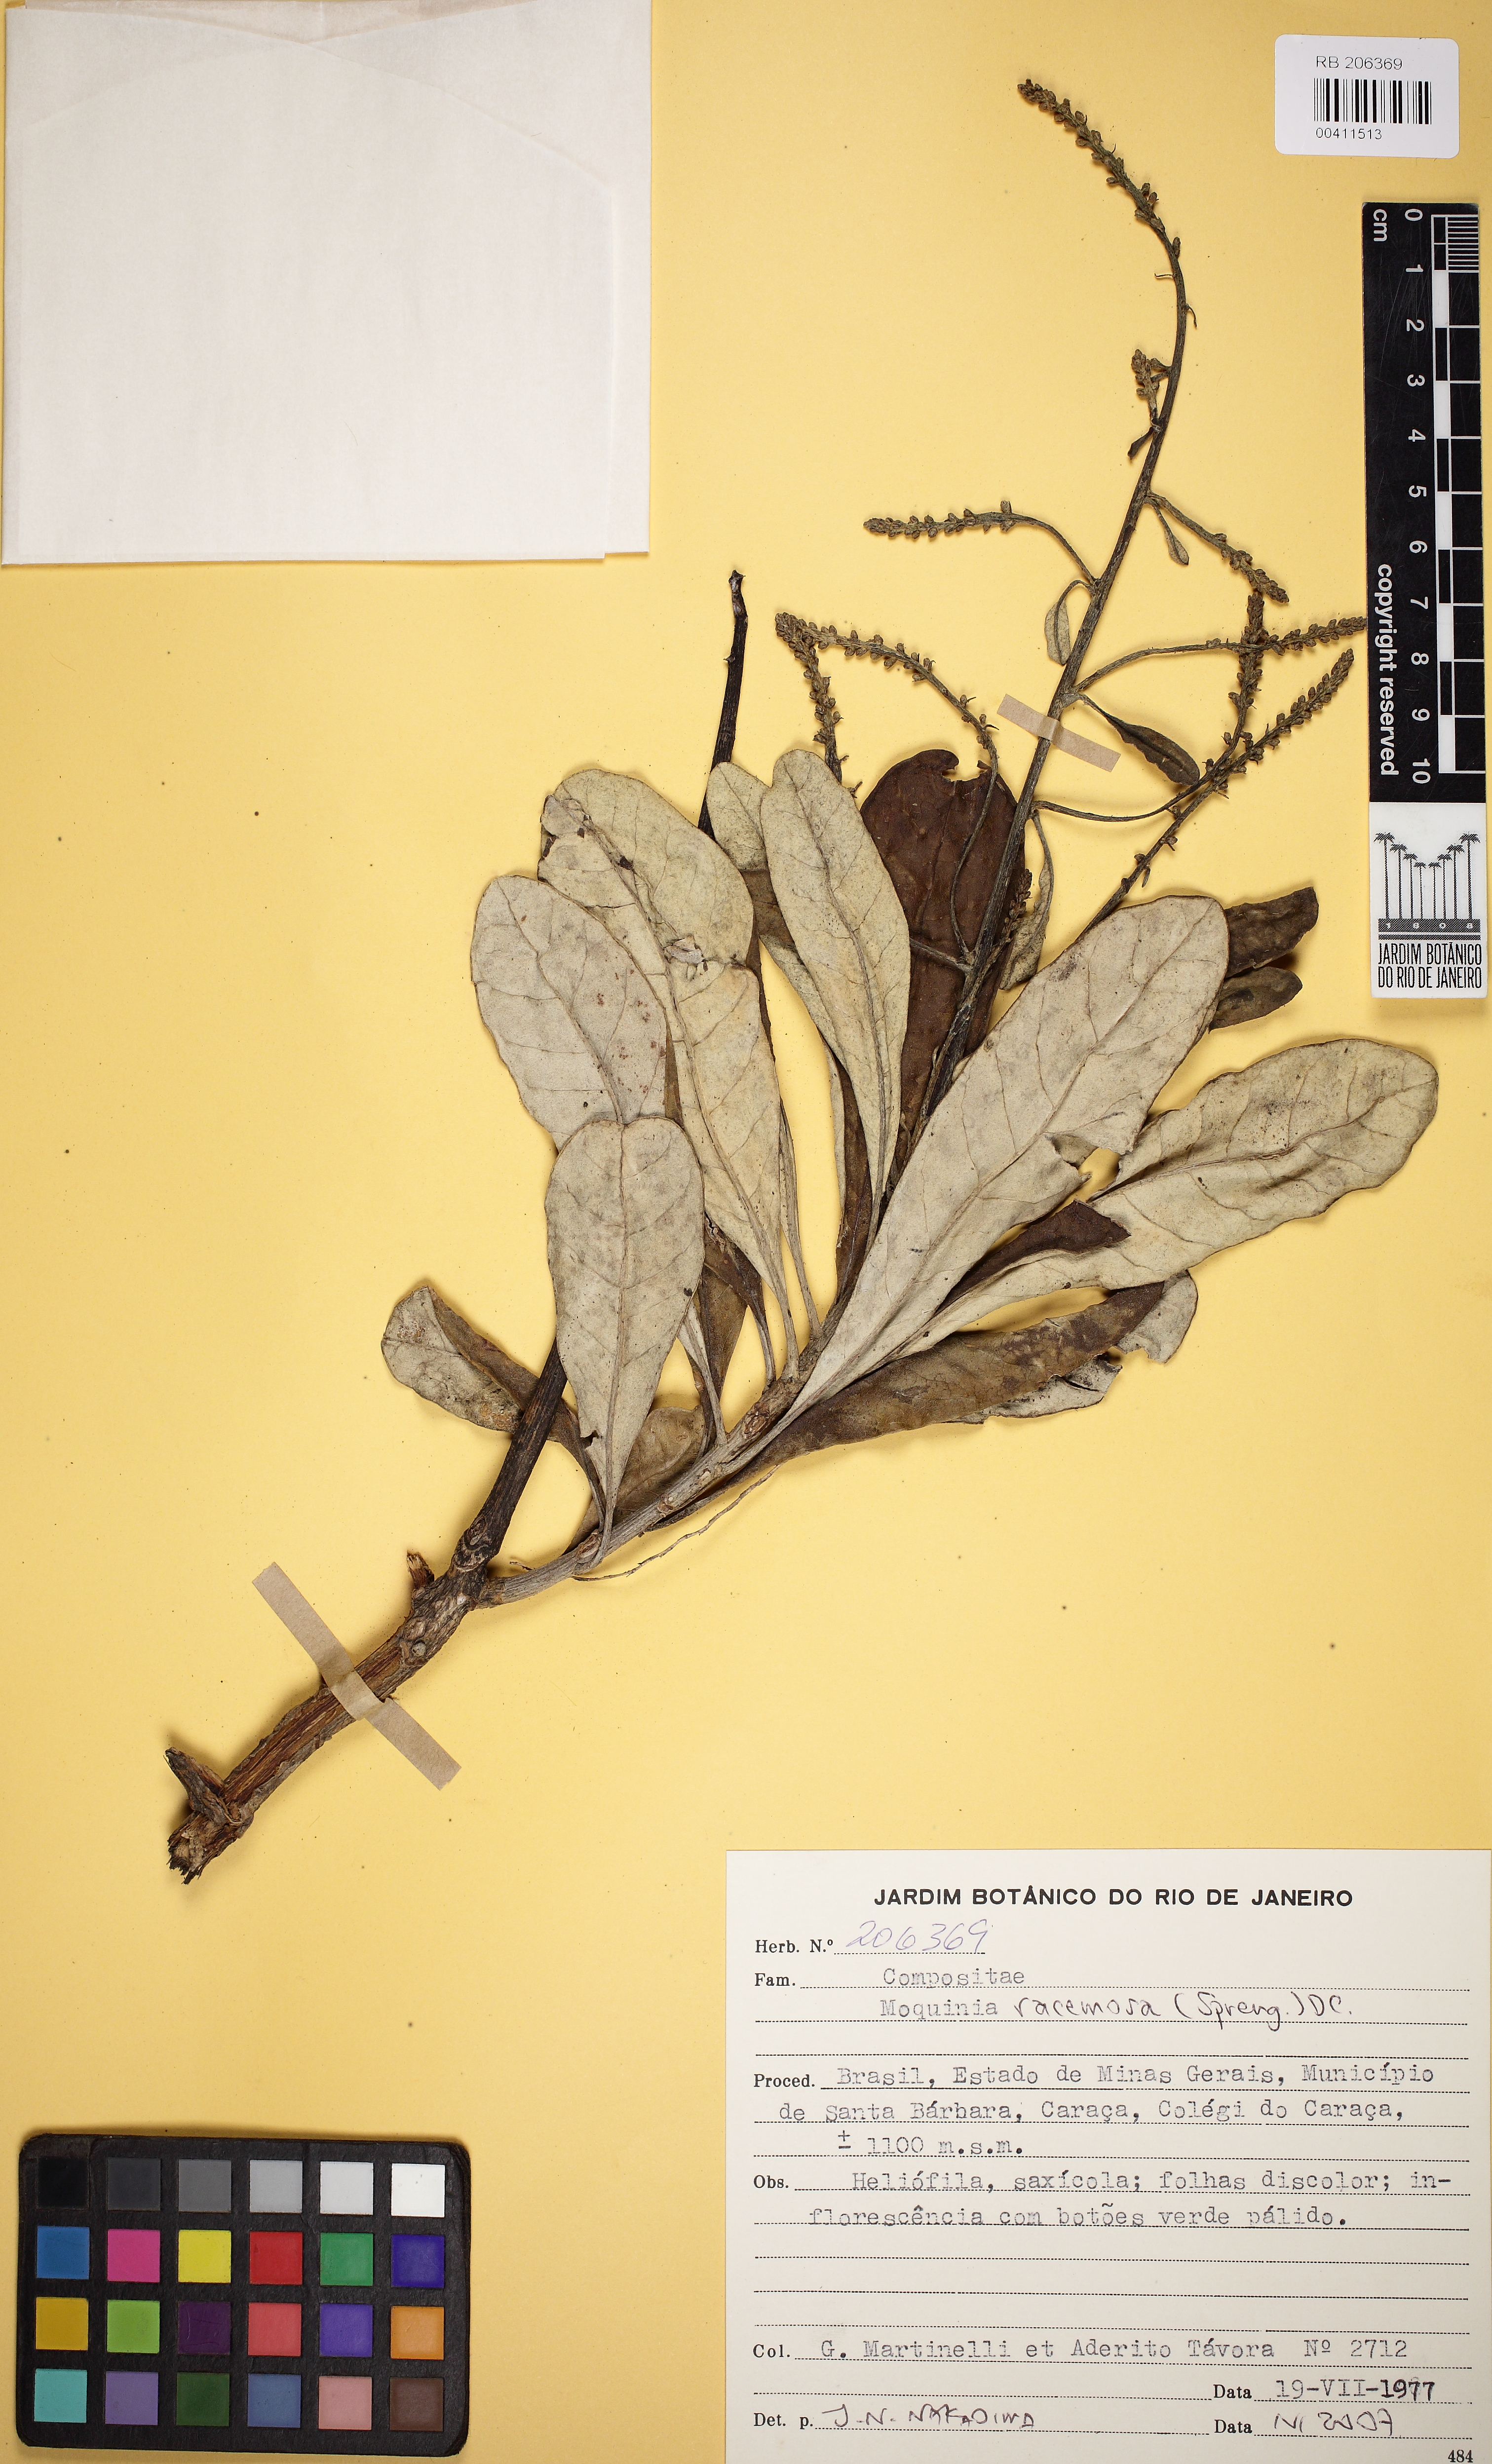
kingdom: Plantae
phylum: Tracheophyta
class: Magnoliopsida
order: Asterales
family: Asteraceae
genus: Moquinia
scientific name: Moquinia racemosa
